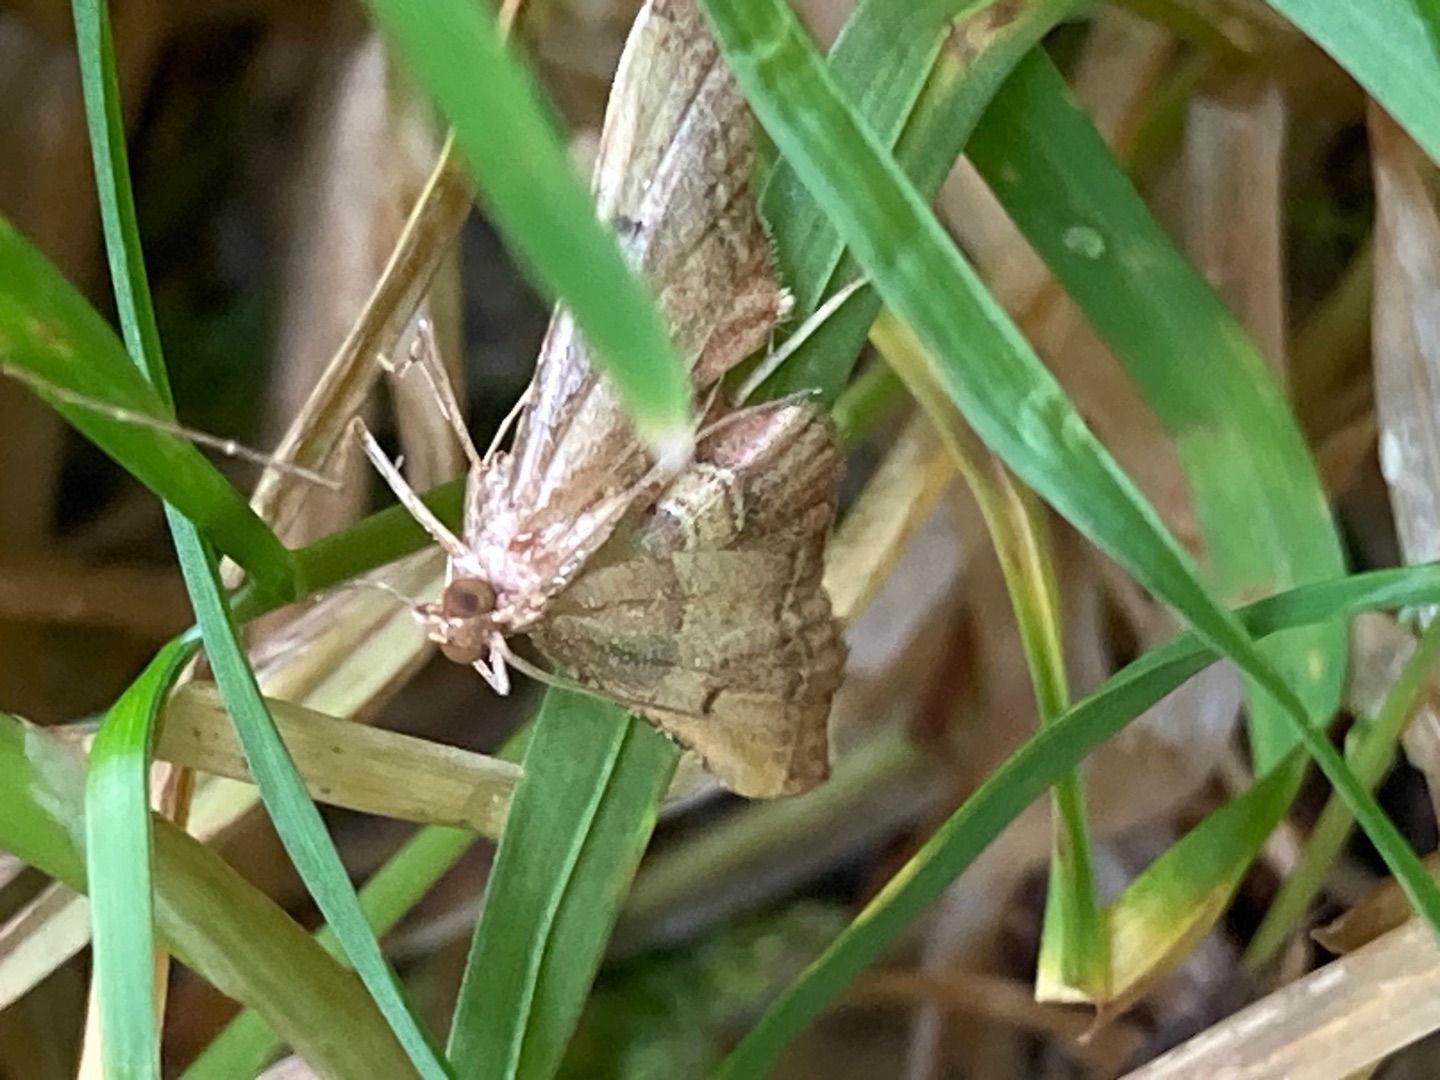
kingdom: Animalia
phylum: Arthropoda
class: Insecta
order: Lepidoptera
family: Pyralidae
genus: Endotricha
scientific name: Endotricha flammealis
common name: Løvkrathalvmøl
